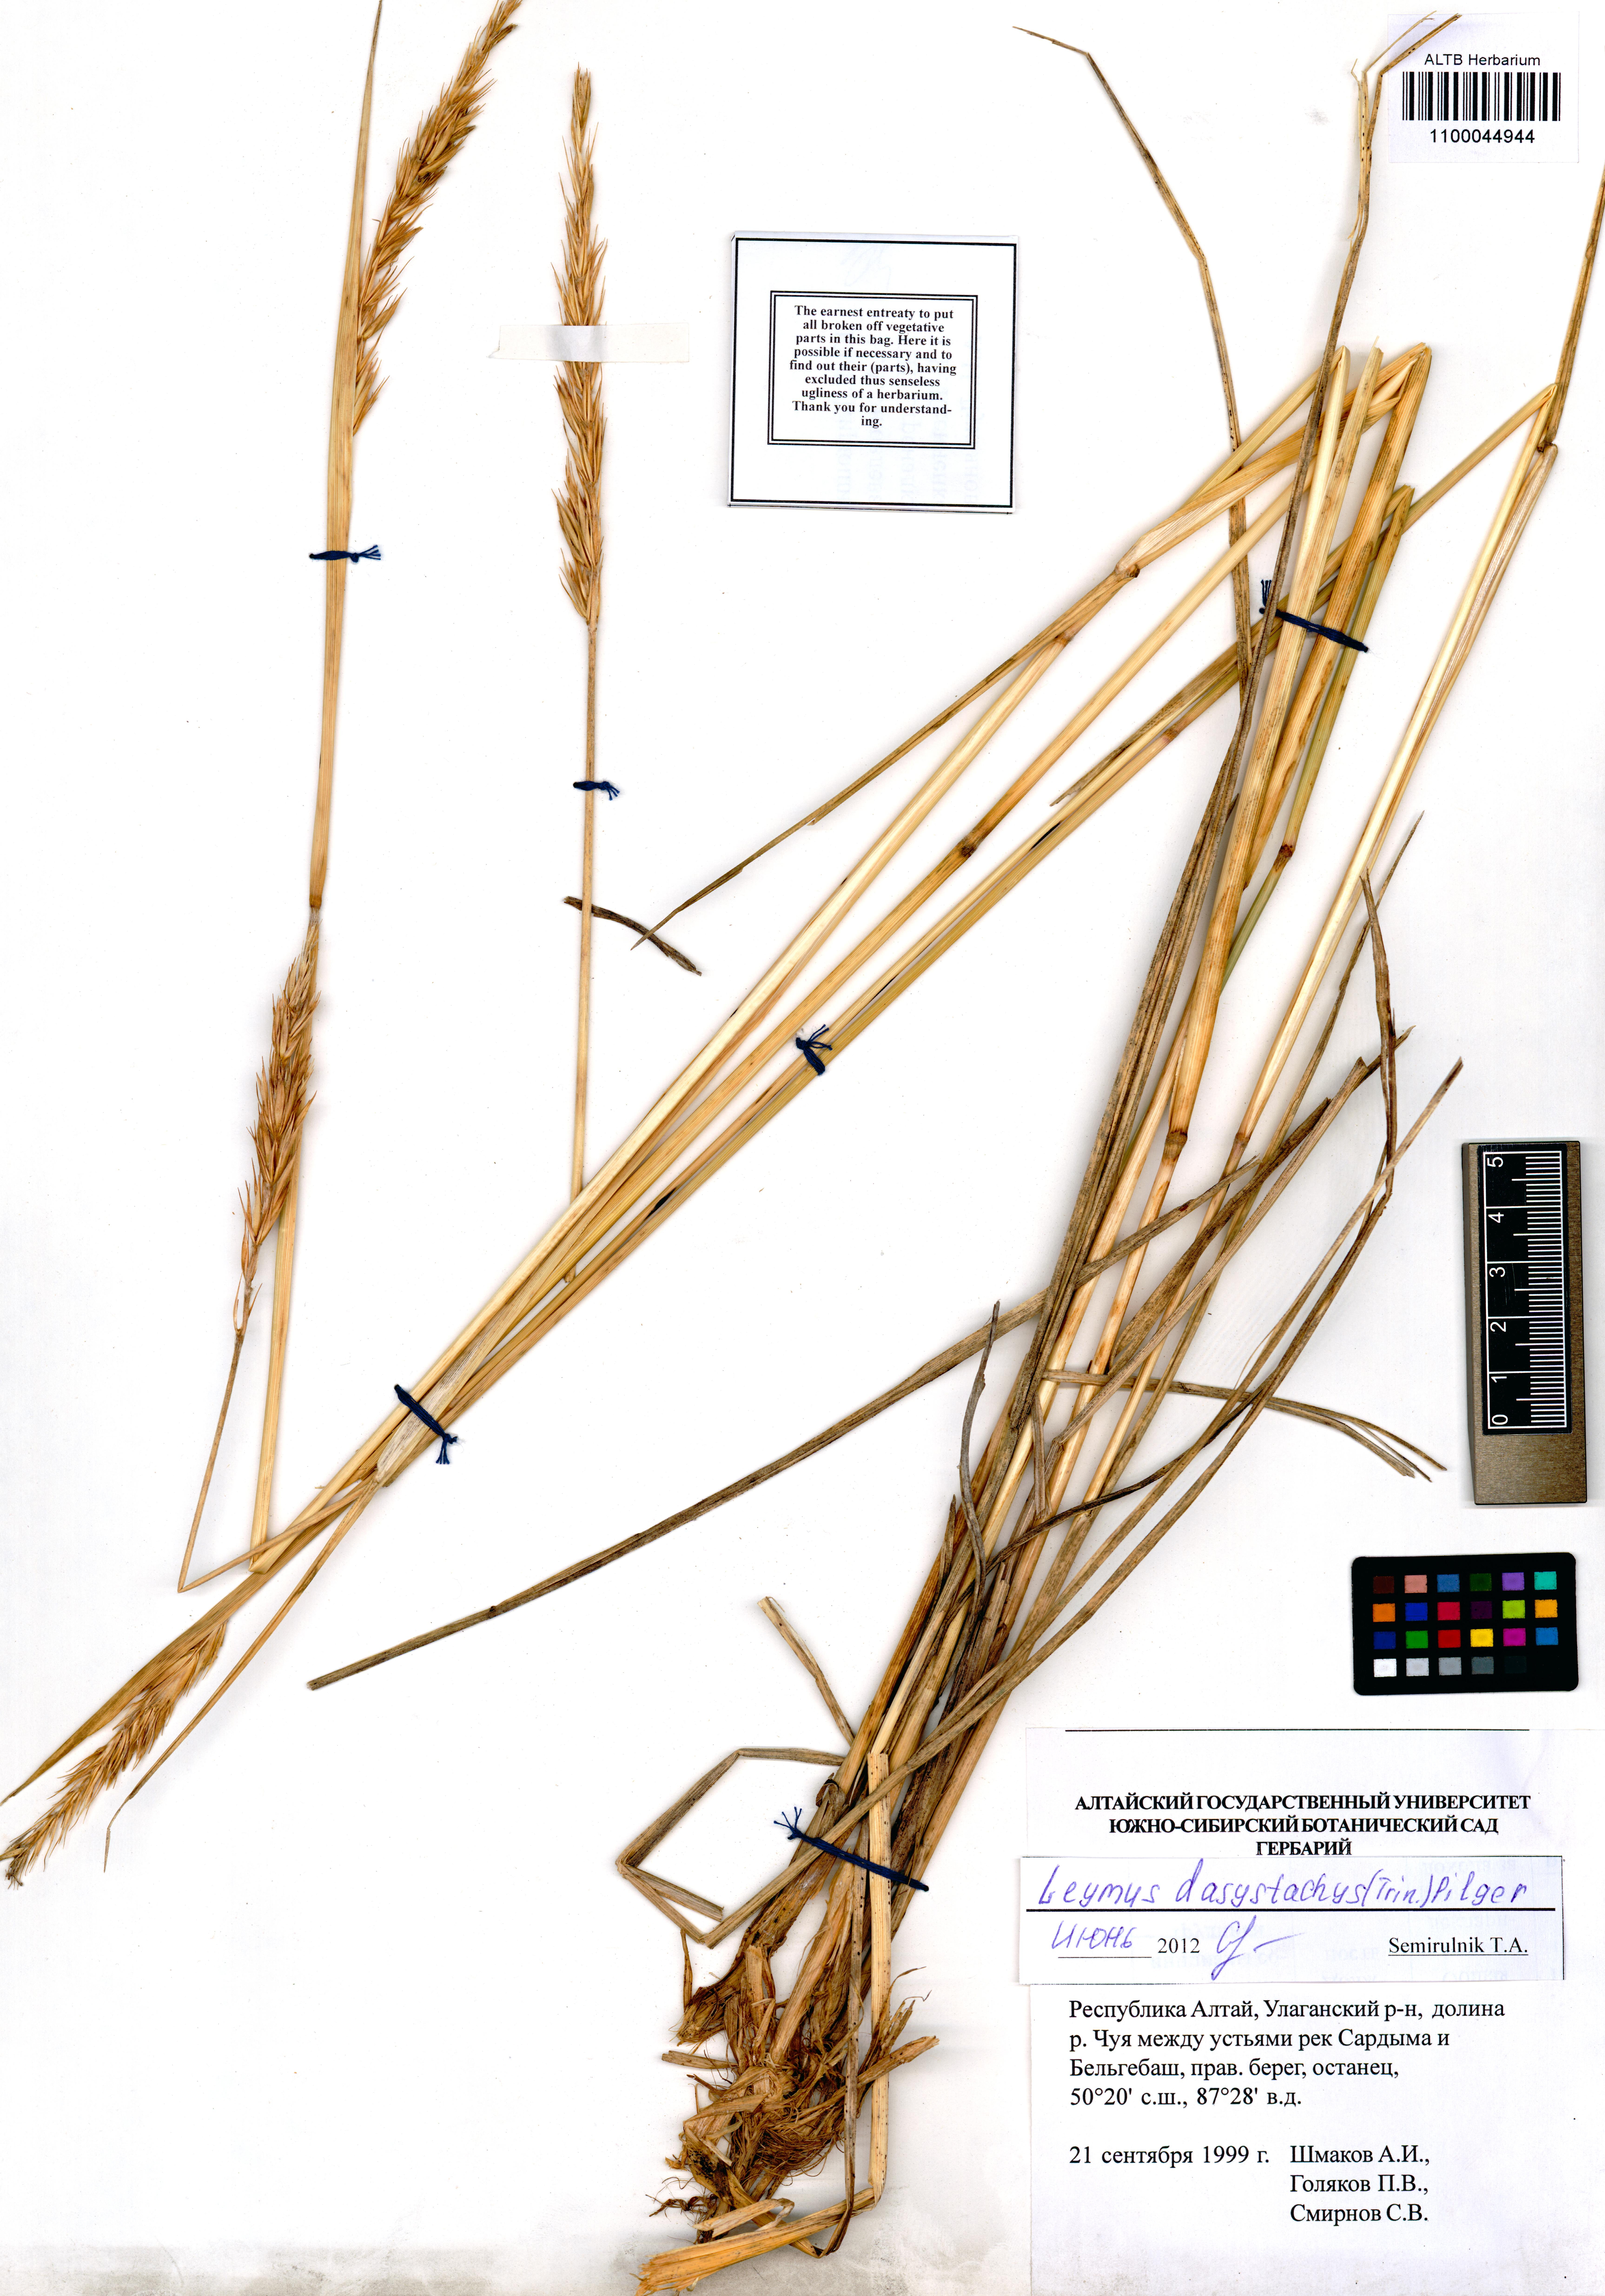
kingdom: Plantae
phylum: Tracheophyta
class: Liliopsida
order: Poales
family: Poaceae
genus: Leymus
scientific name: Leymus secalinus
